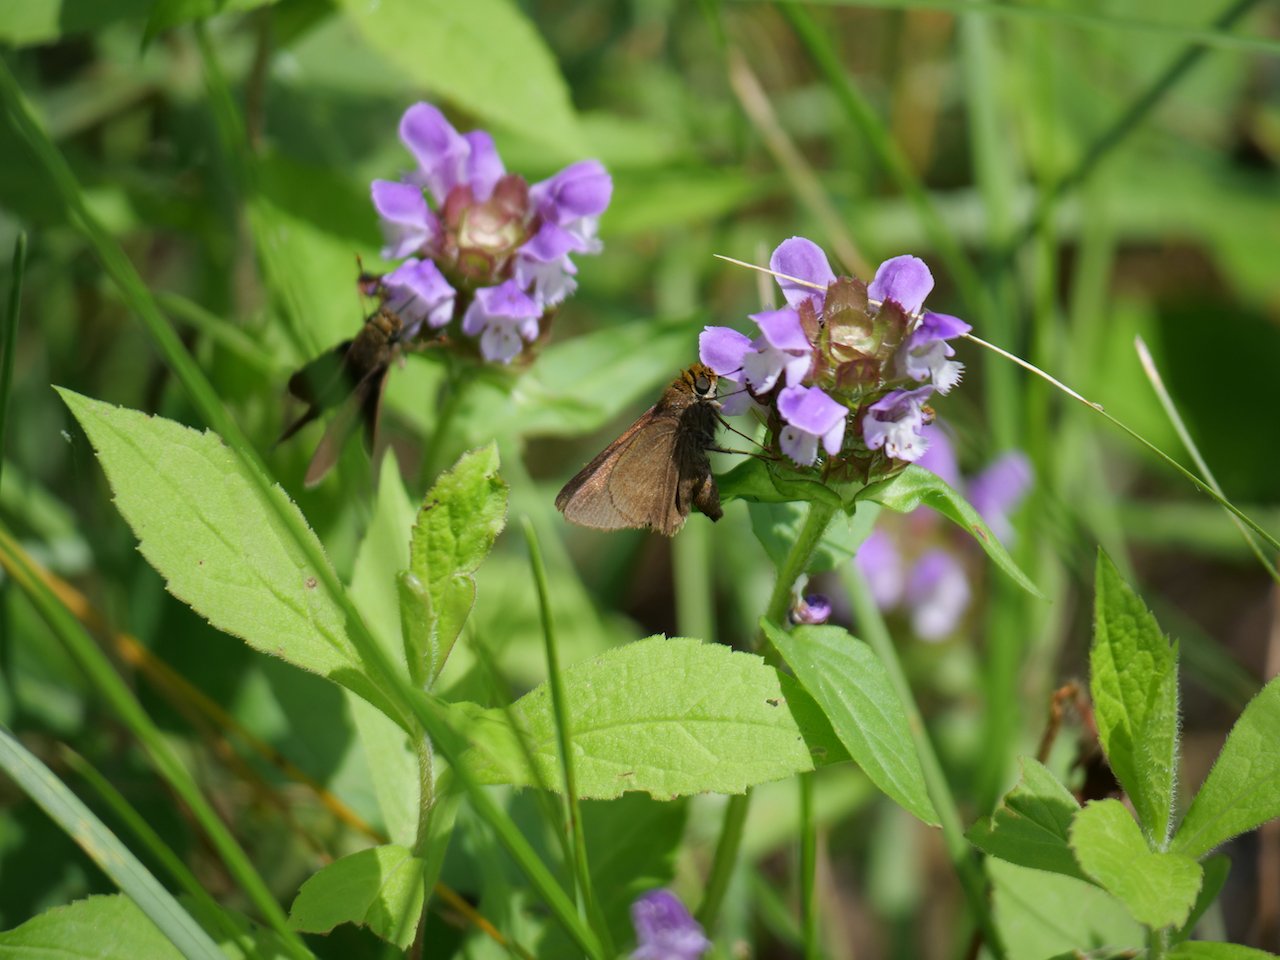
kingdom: Animalia
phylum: Arthropoda
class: Insecta
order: Lepidoptera
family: Hesperiidae
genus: Euphyes
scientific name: Euphyes vestris
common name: Dun Skipper
